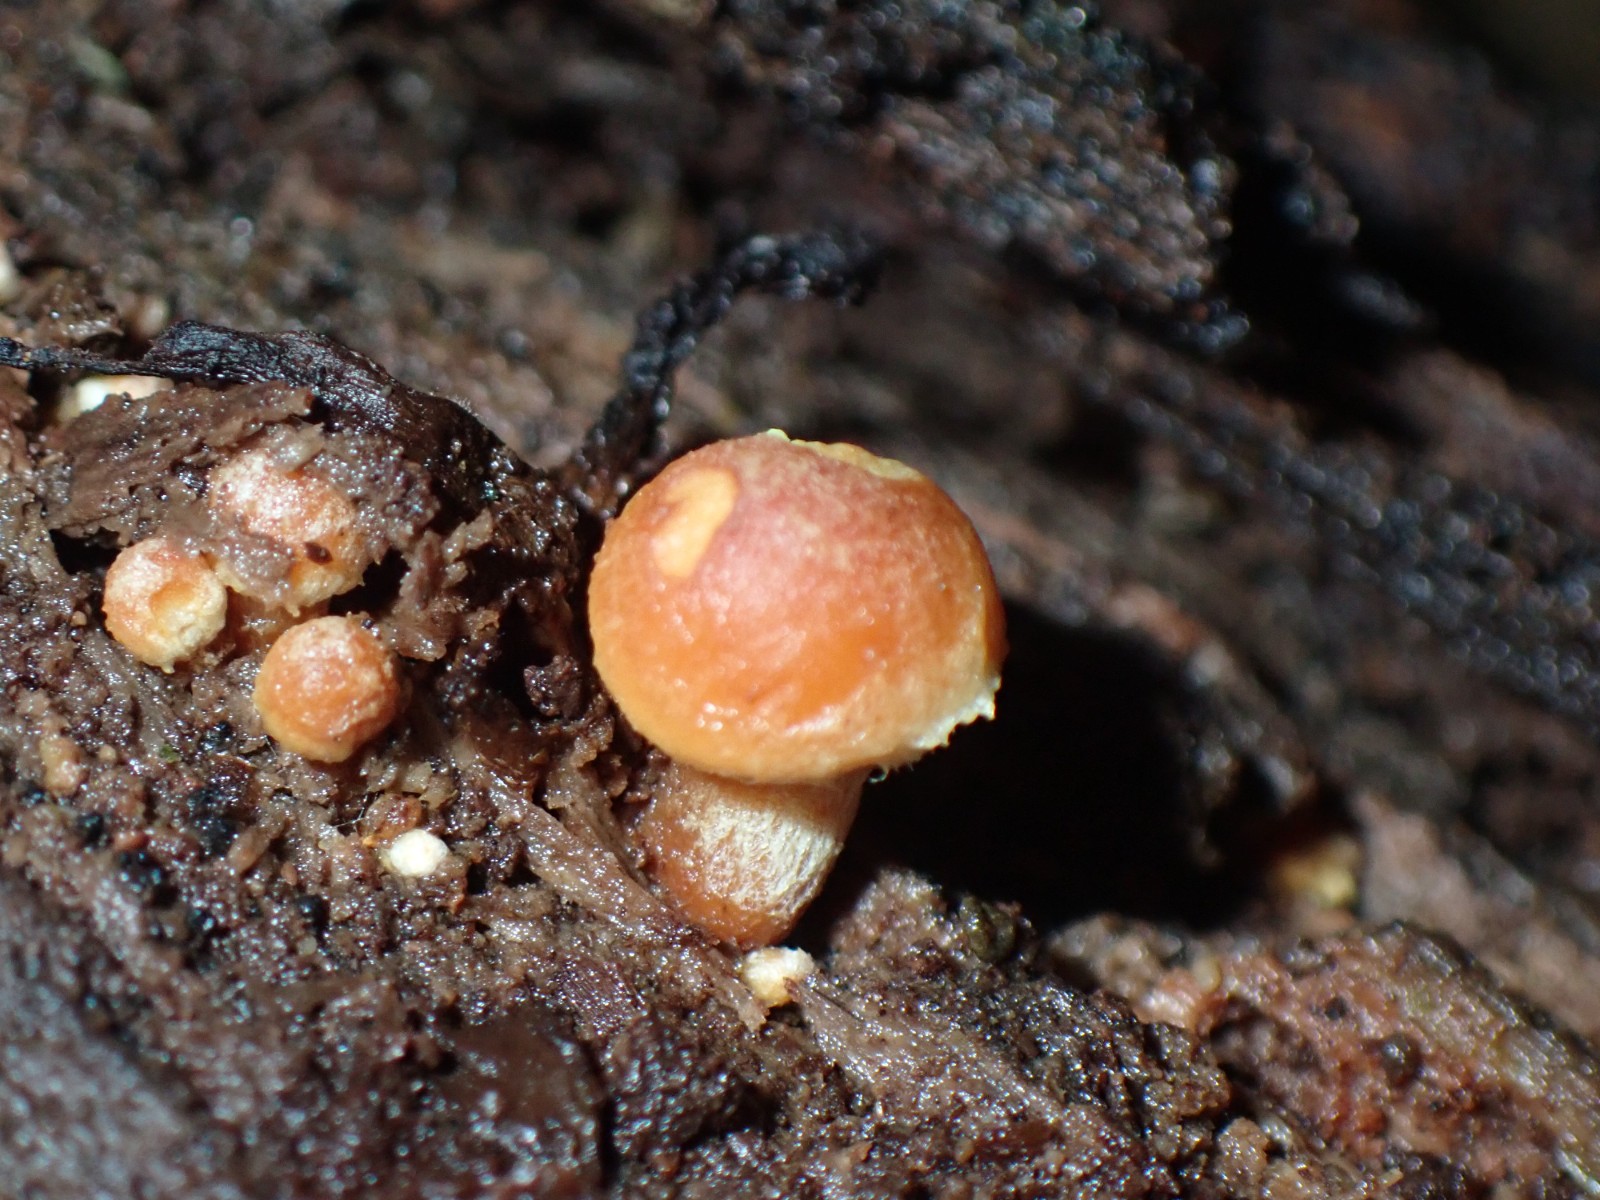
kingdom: Fungi
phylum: Basidiomycota
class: Agaricomycetes
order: Agaricales
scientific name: Agaricales
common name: champignonordenen
